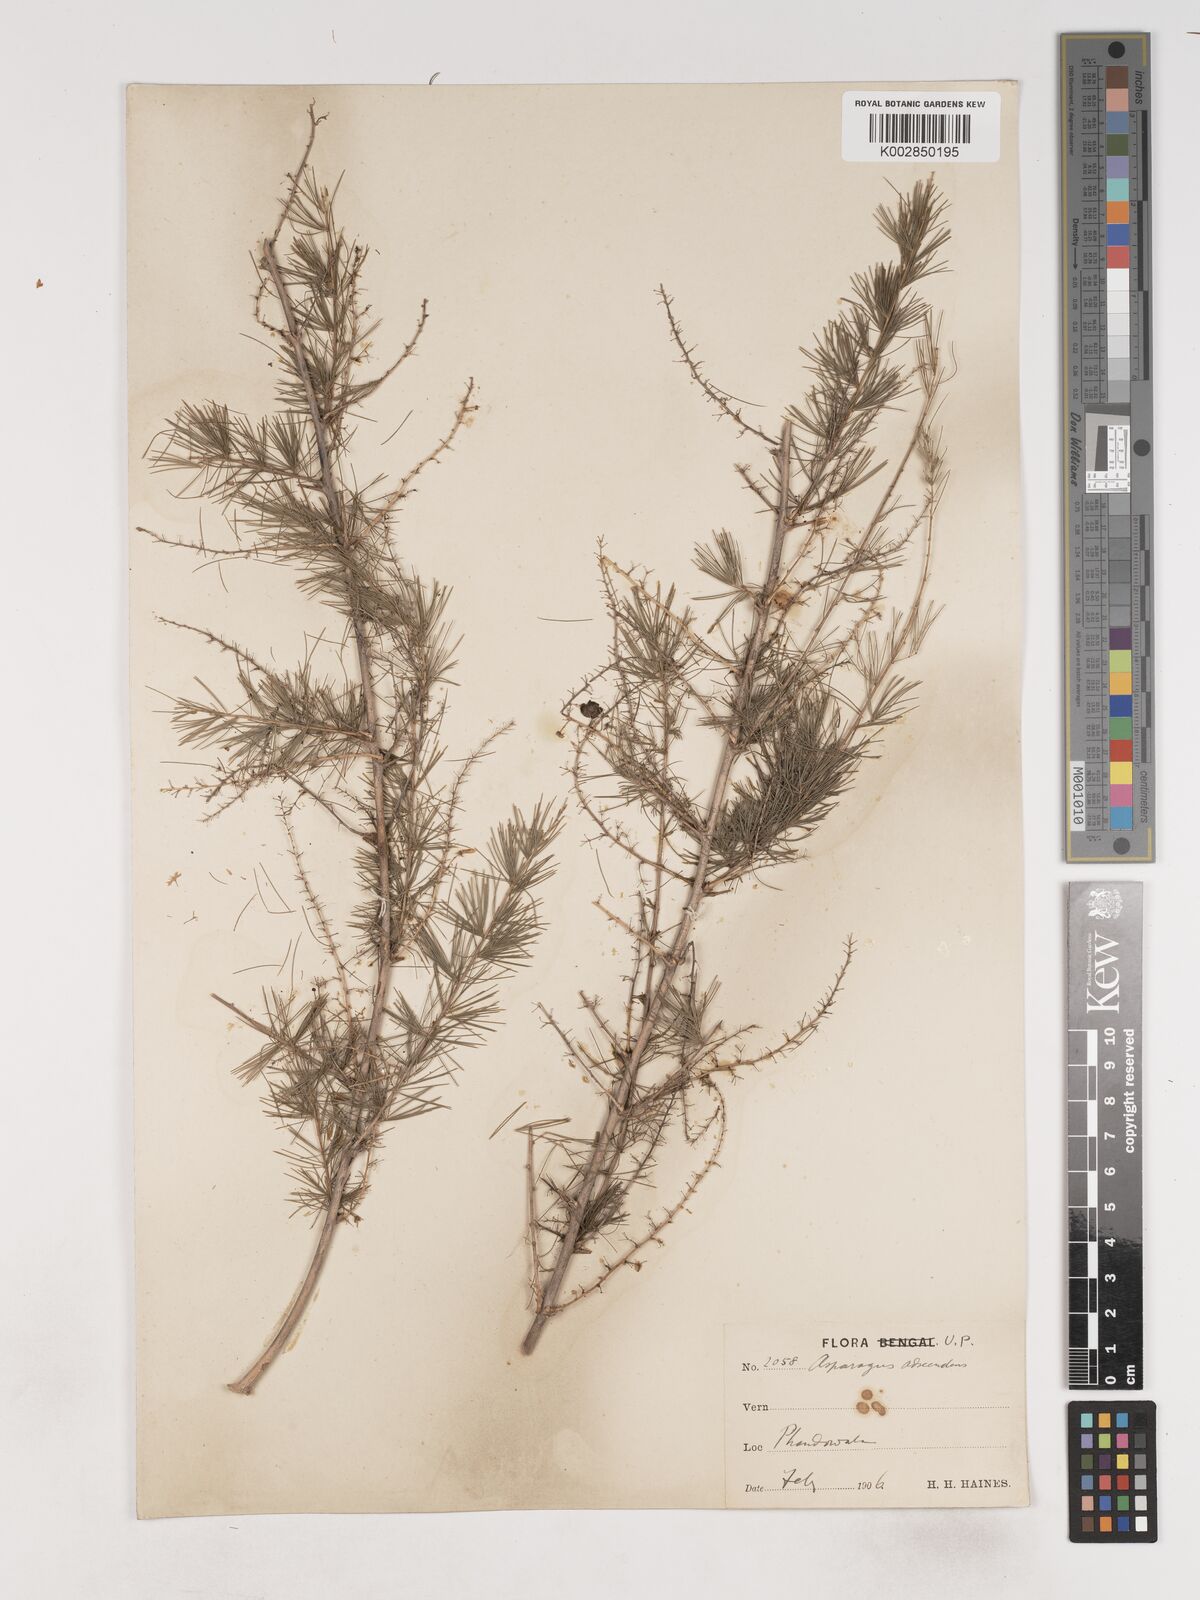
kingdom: Plantae
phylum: Tracheophyta
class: Liliopsida
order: Asparagales
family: Asparagaceae
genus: Asparagus
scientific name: Asparagus adscendens
